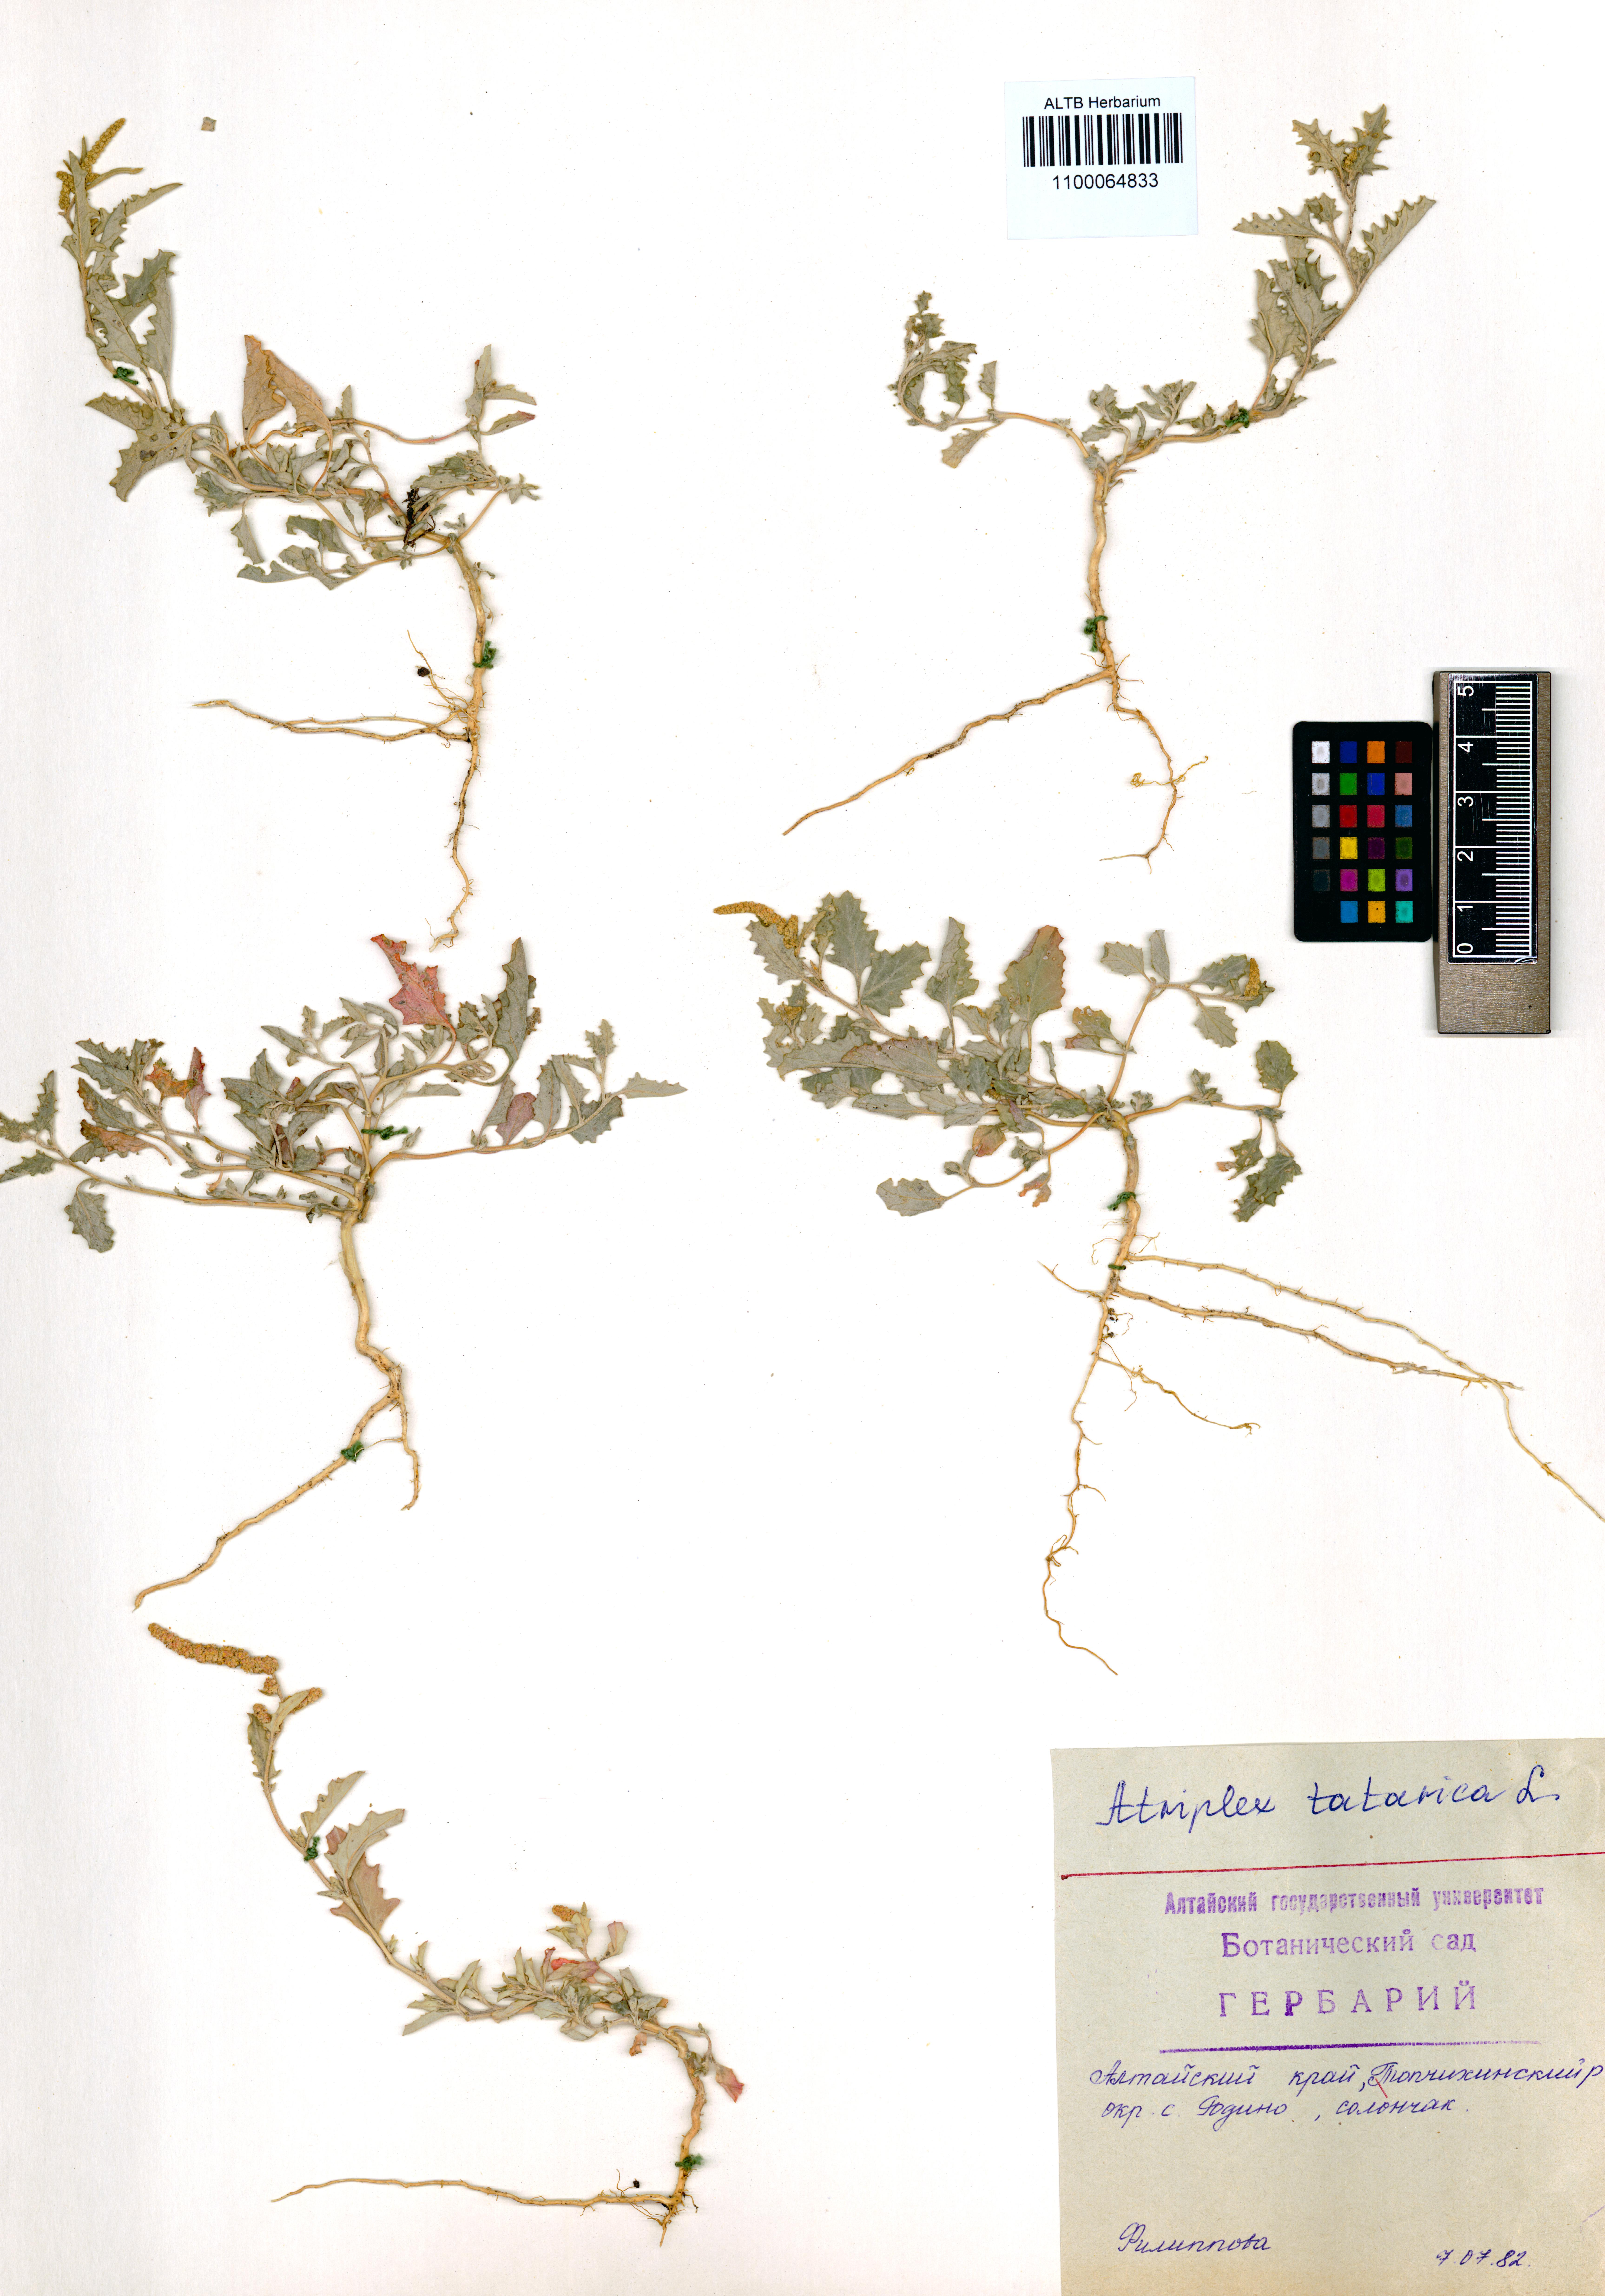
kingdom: Plantae
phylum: Tracheophyta
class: Magnoliopsida
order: Caryophyllales
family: Amaranthaceae
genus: Atriplex
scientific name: Atriplex tatarica
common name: Tatarian orache
